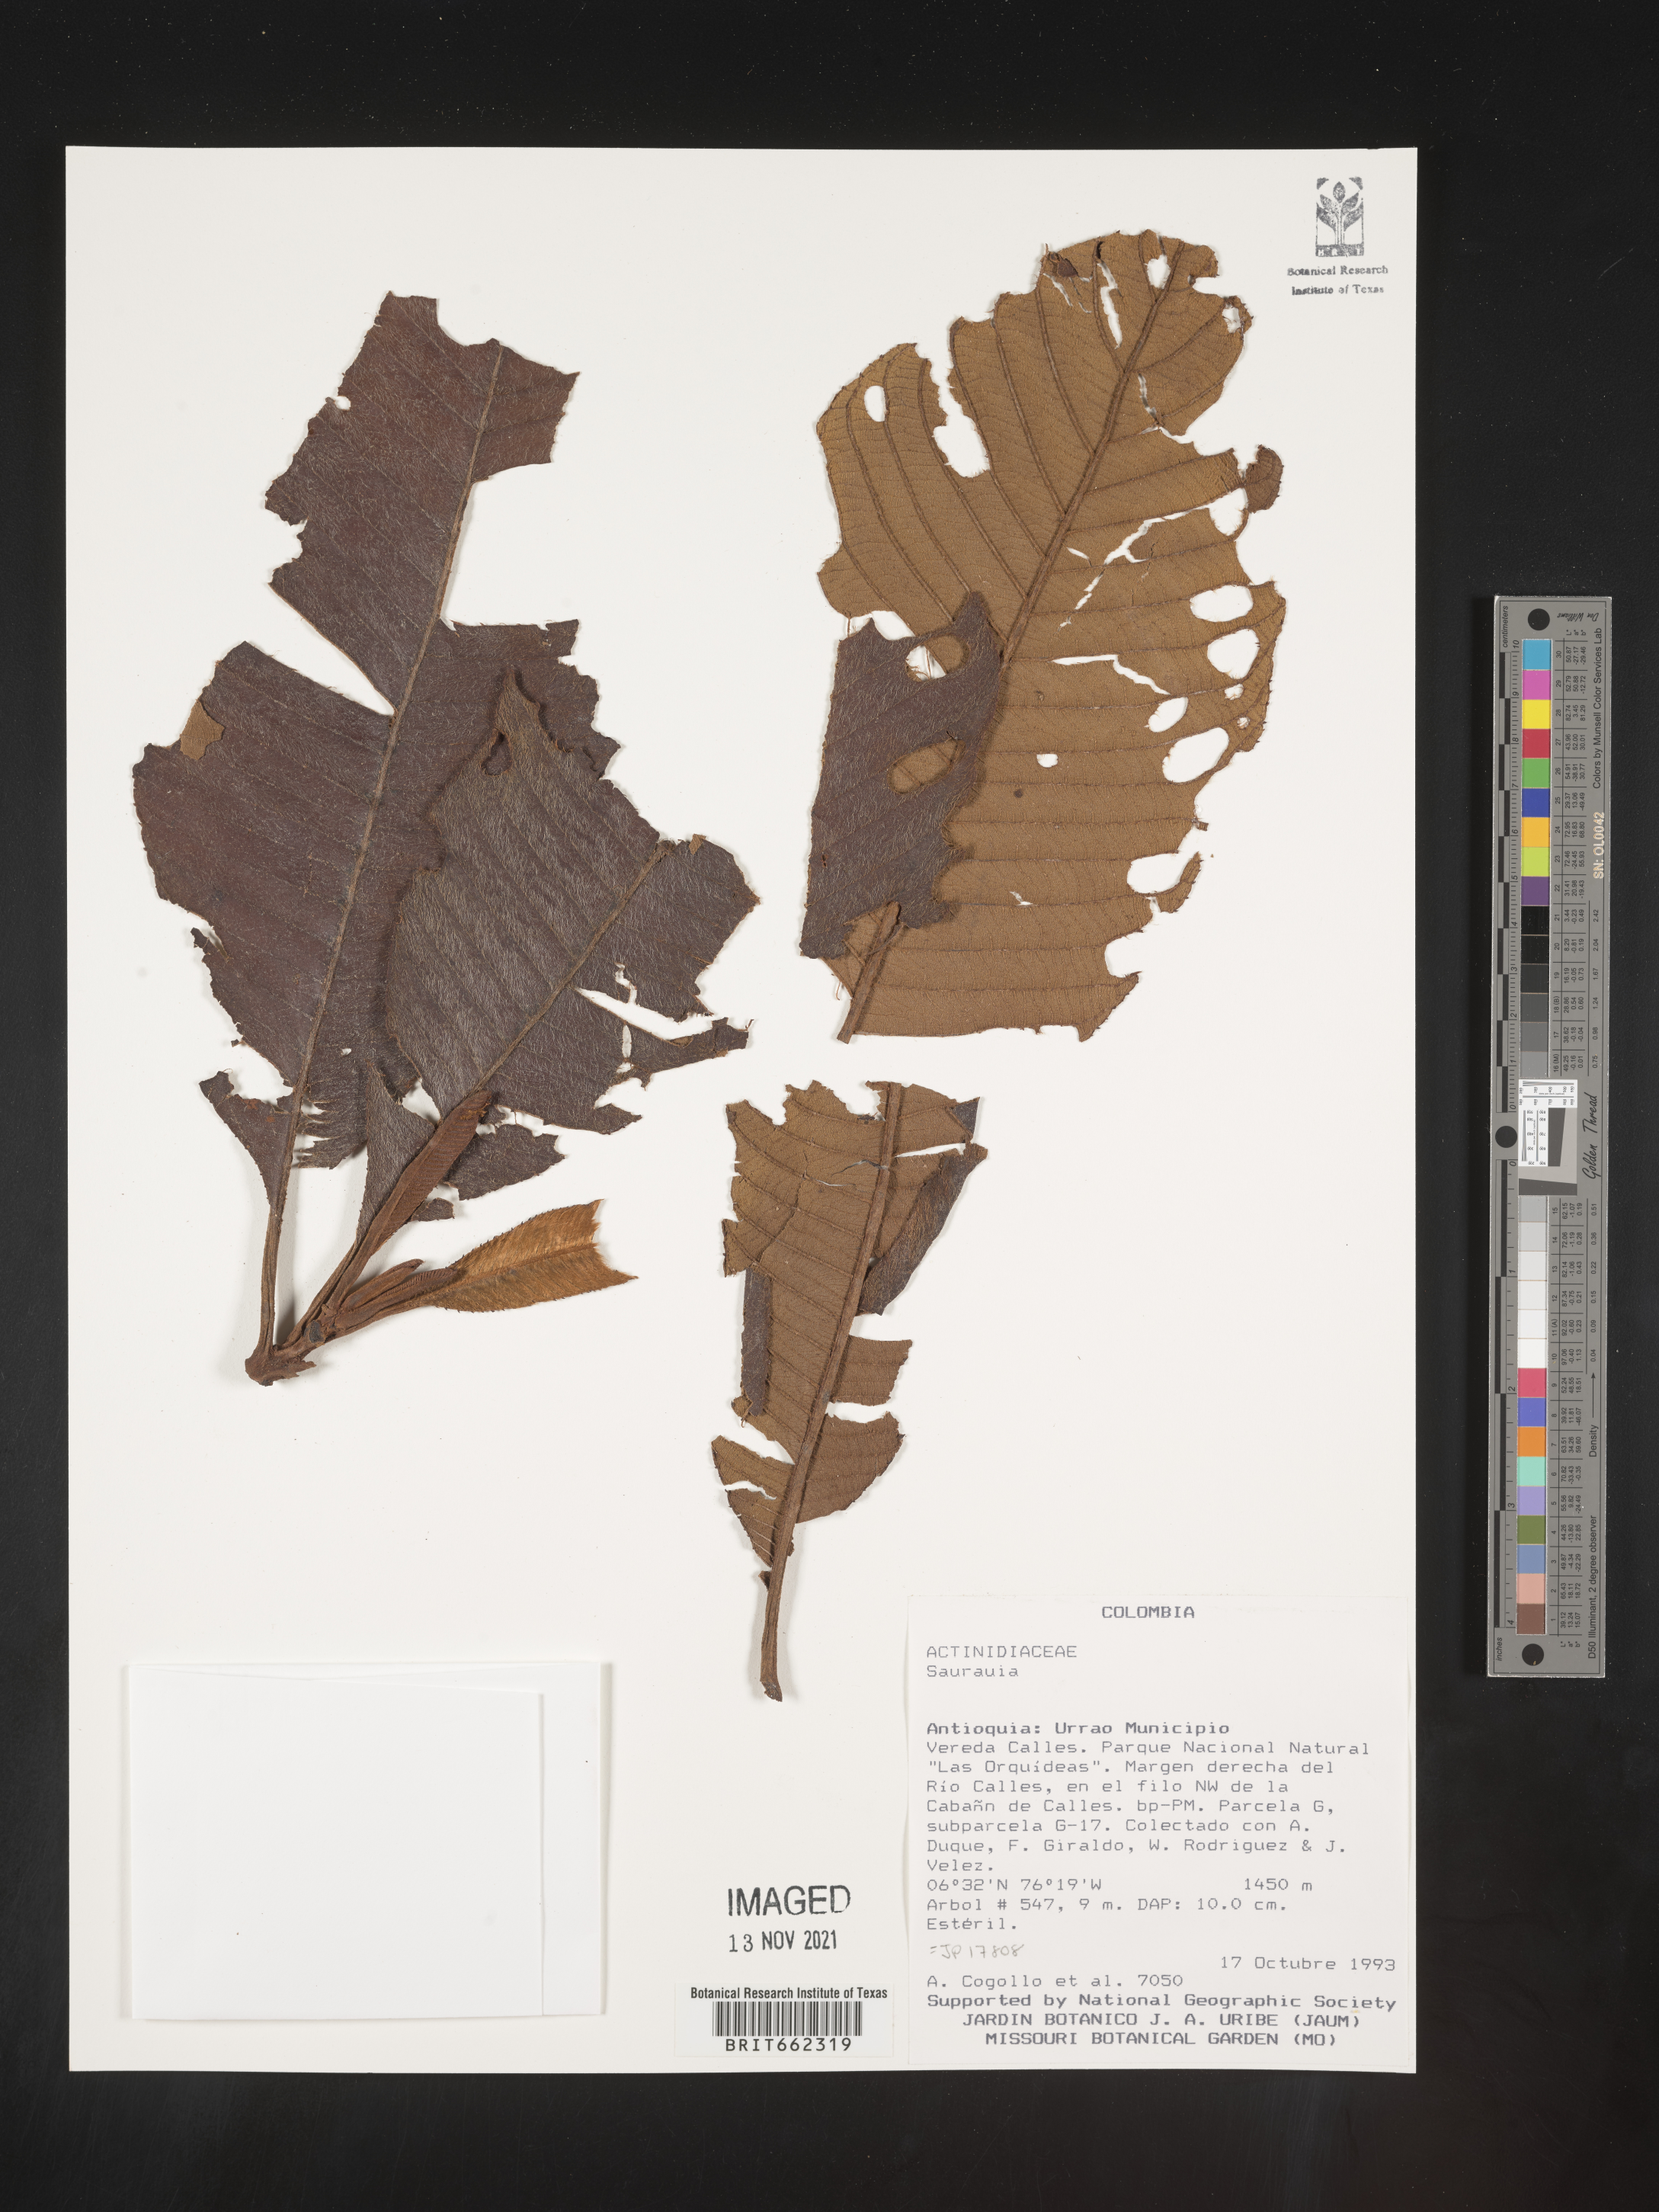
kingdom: Plantae
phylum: Tracheophyta
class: Magnoliopsida
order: Ericales
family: Actinidiaceae
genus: Saurauia
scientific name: Saurauia
